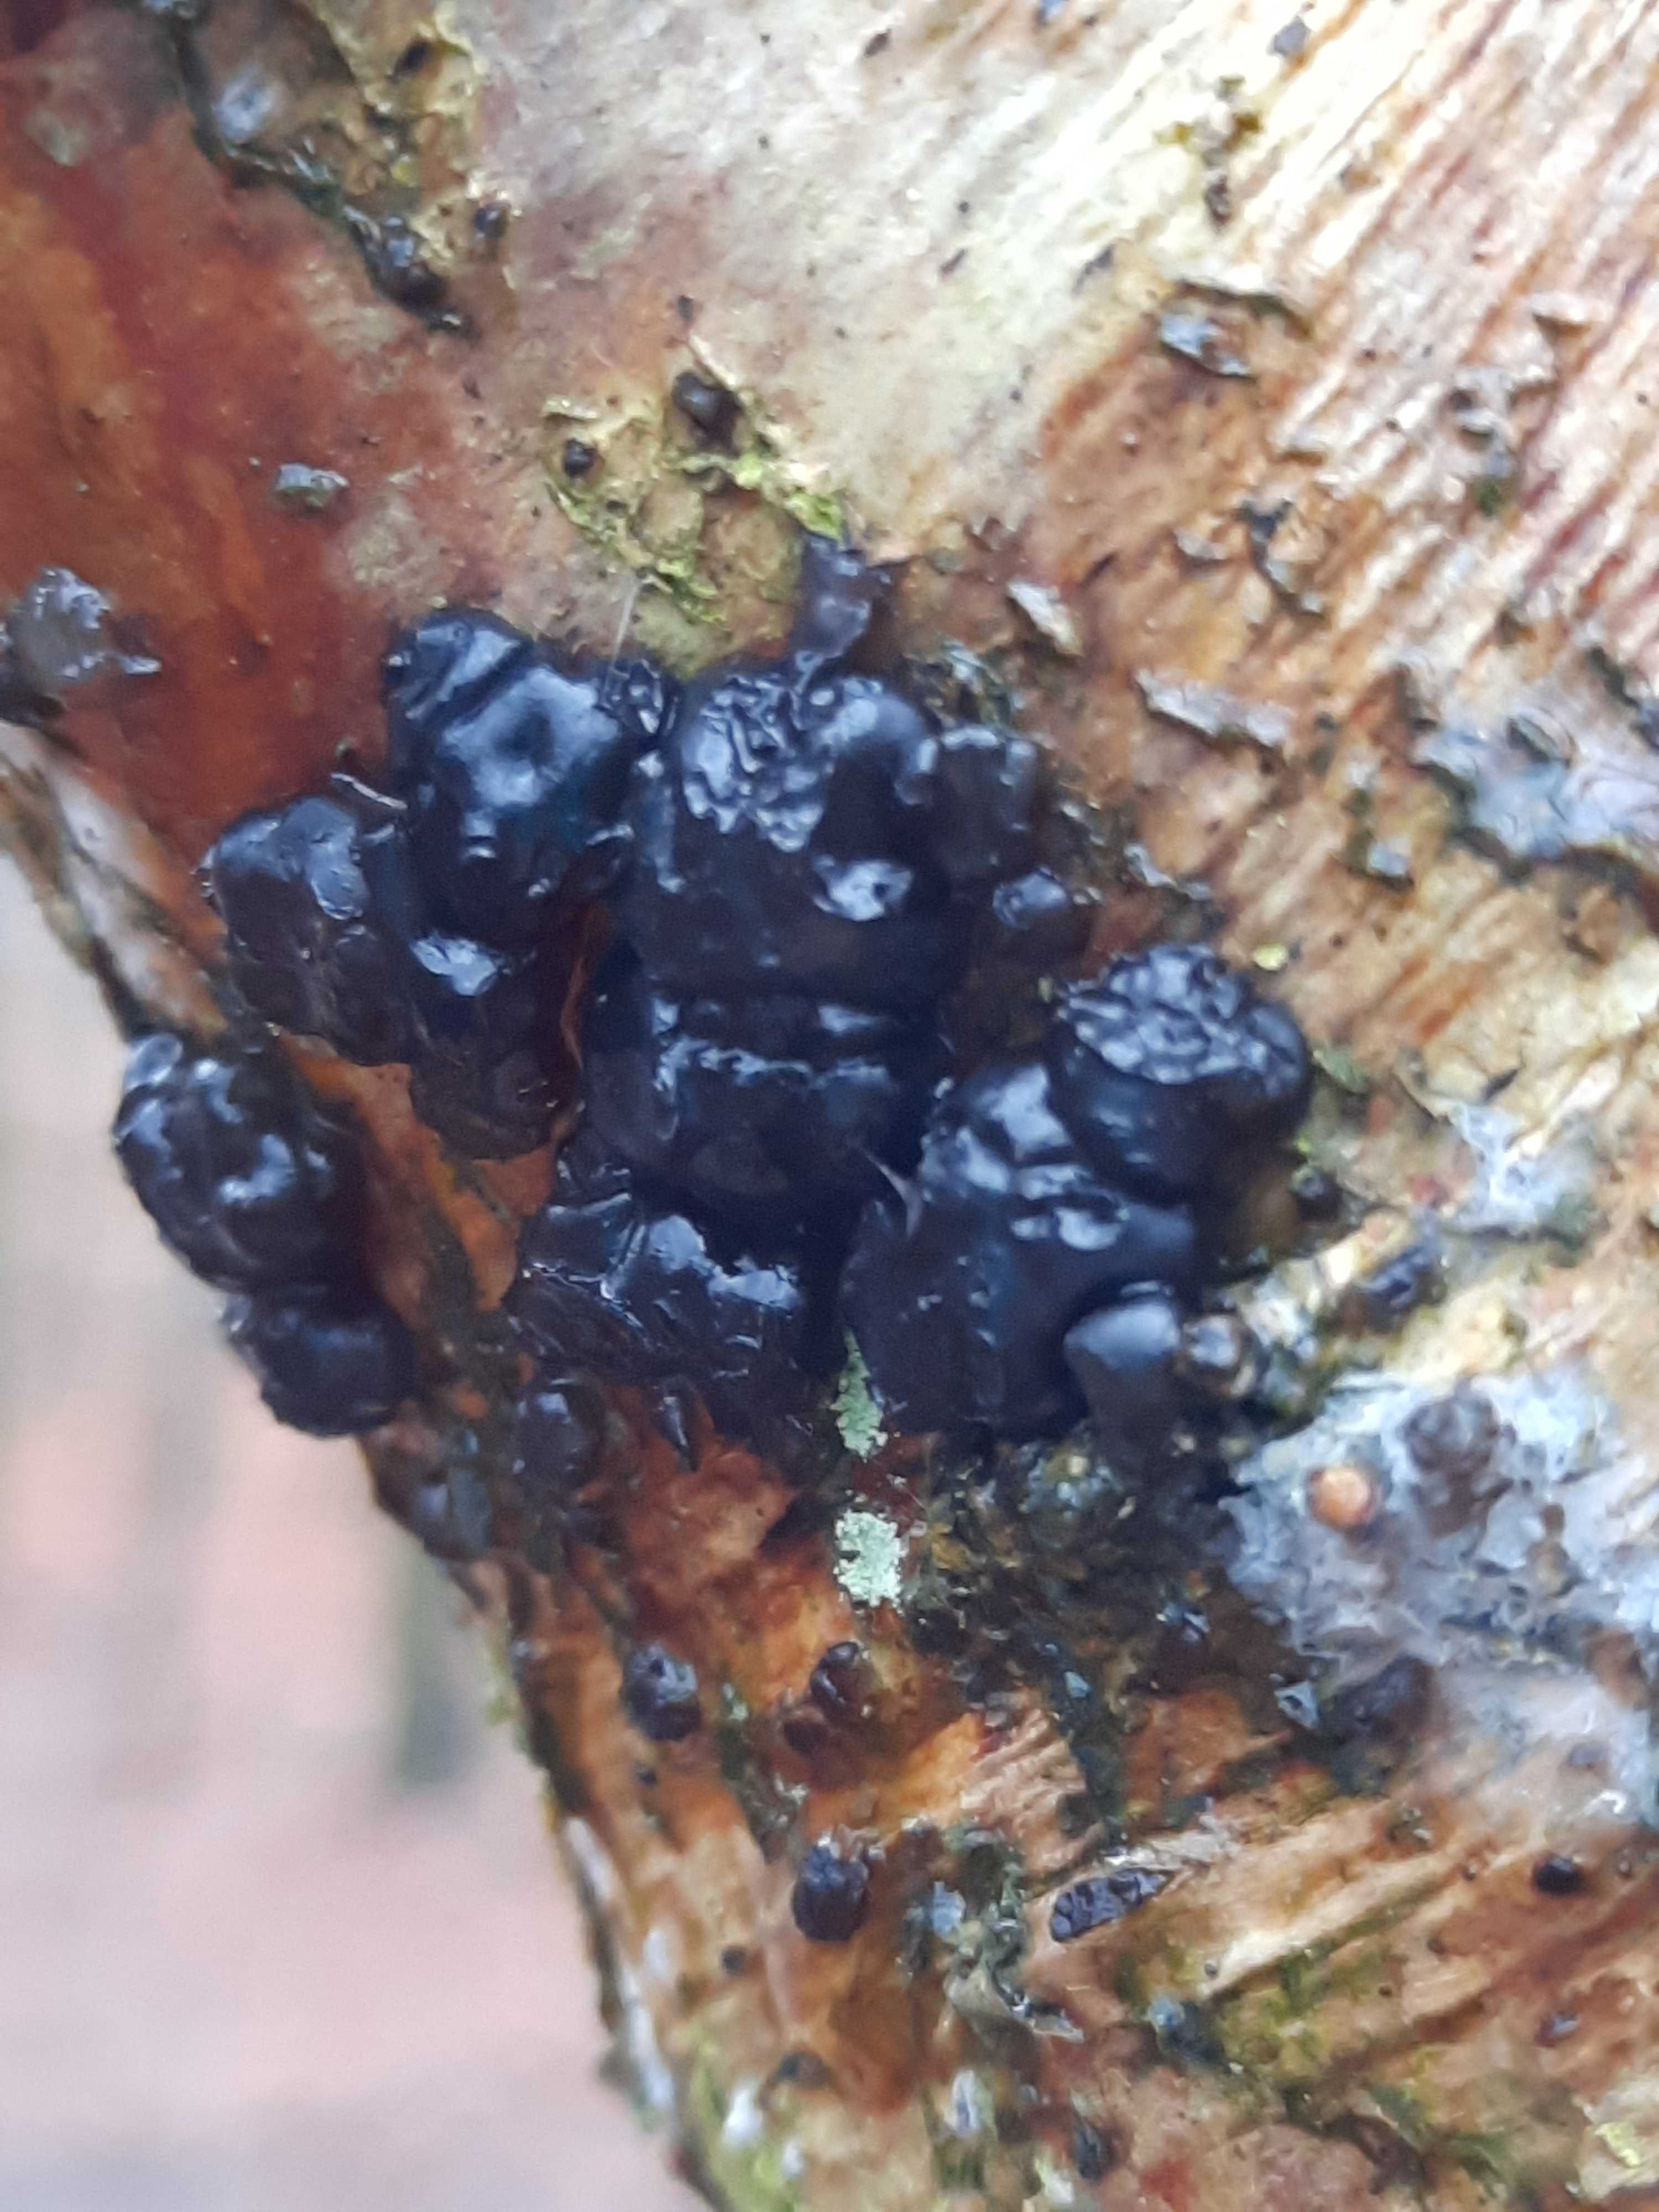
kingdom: Fungi
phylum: Basidiomycota
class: Agaricomycetes
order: Auriculariales
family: Auriculariaceae
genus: Exidia
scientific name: Exidia nigricans
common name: almindelig bævretop
